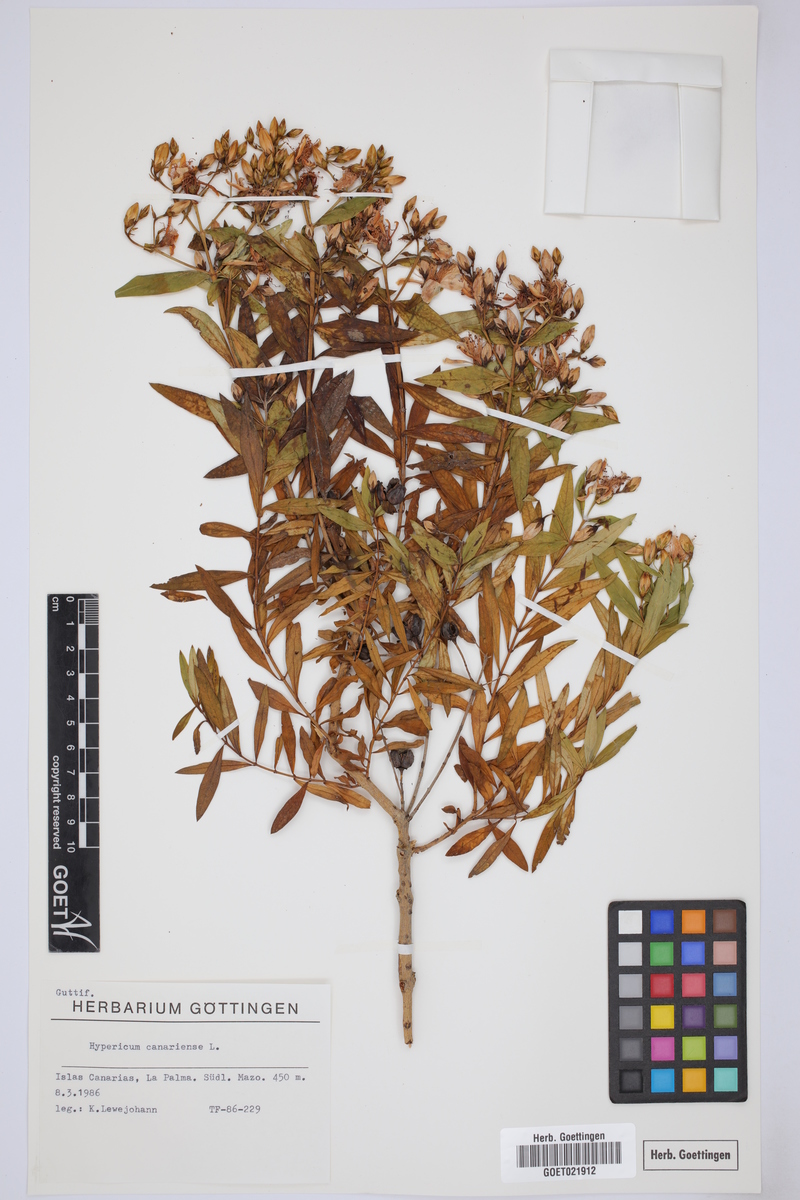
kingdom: Plantae
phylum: Tracheophyta
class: Magnoliopsida
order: Malpighiales
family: Hypericaceae
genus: Hypericum
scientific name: Hypericum canariense
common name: Canary island st. johnswort
